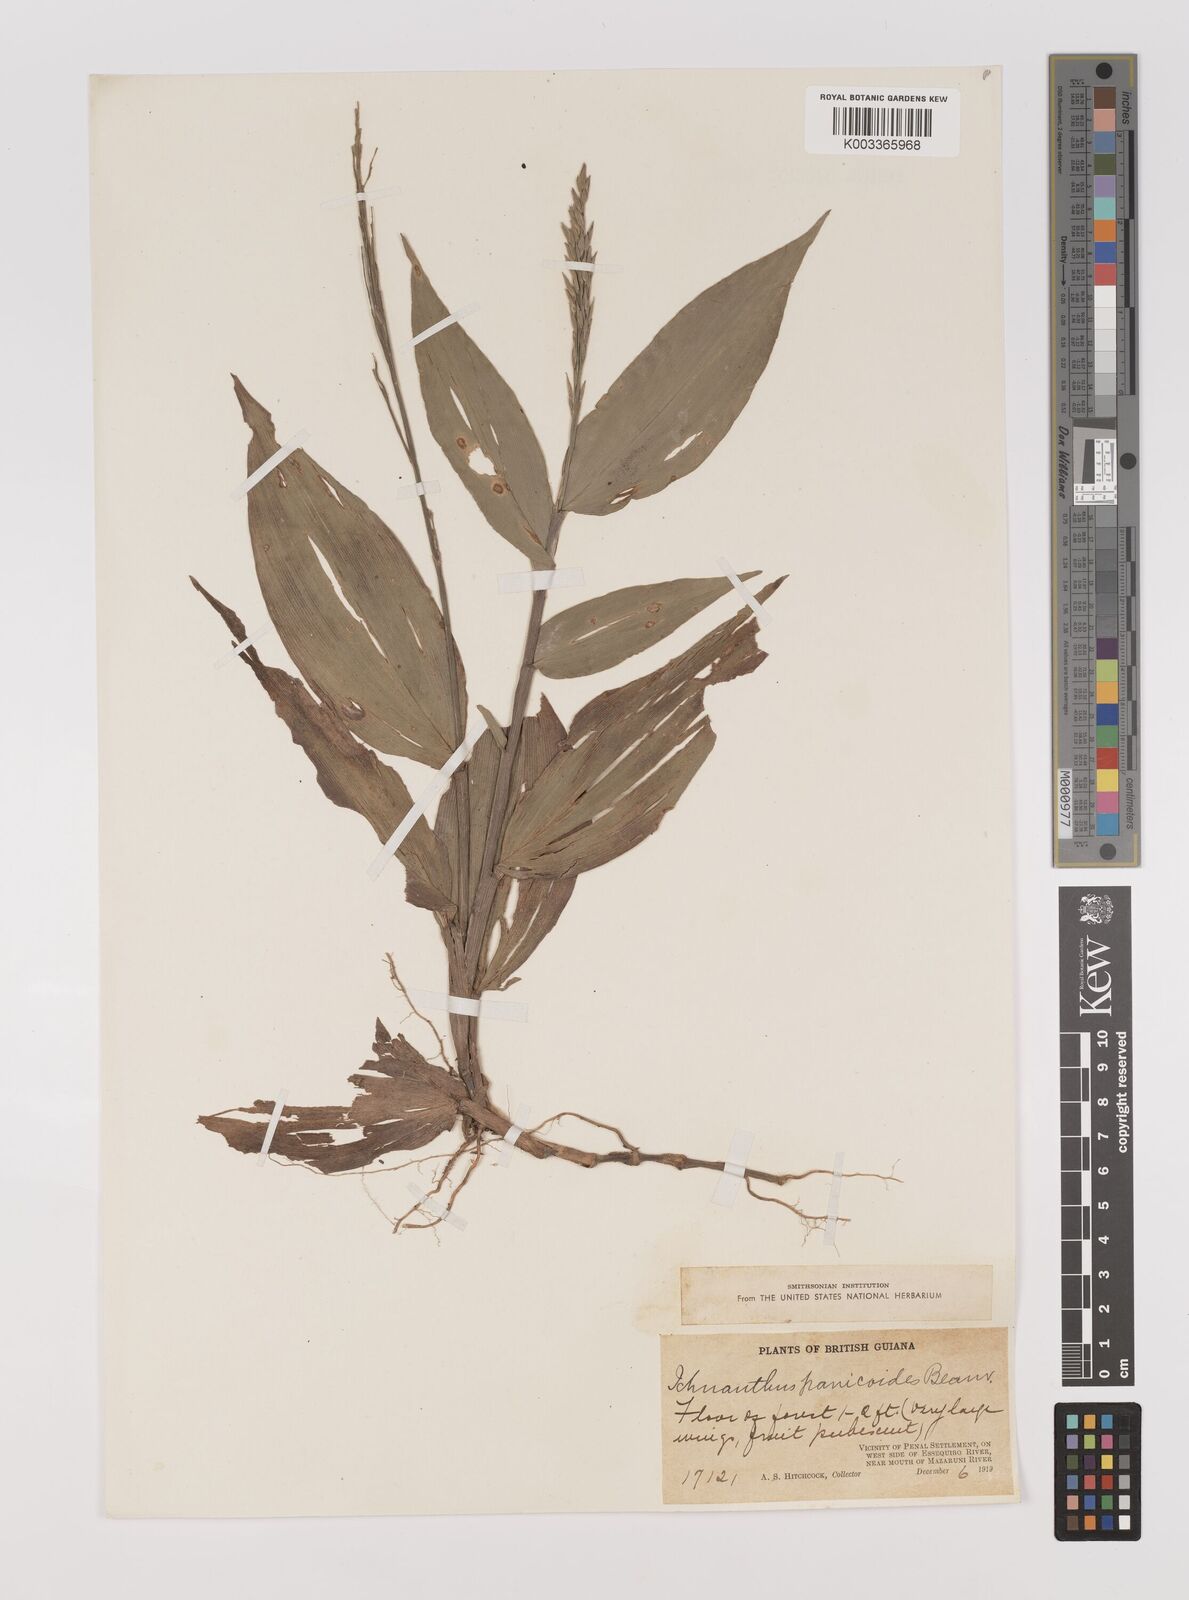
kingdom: Plantae
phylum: Tracheophyta
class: Liliopsida
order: Poales
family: Poaceae
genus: Ichnanthus
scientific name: Ichnanthus panicoides
